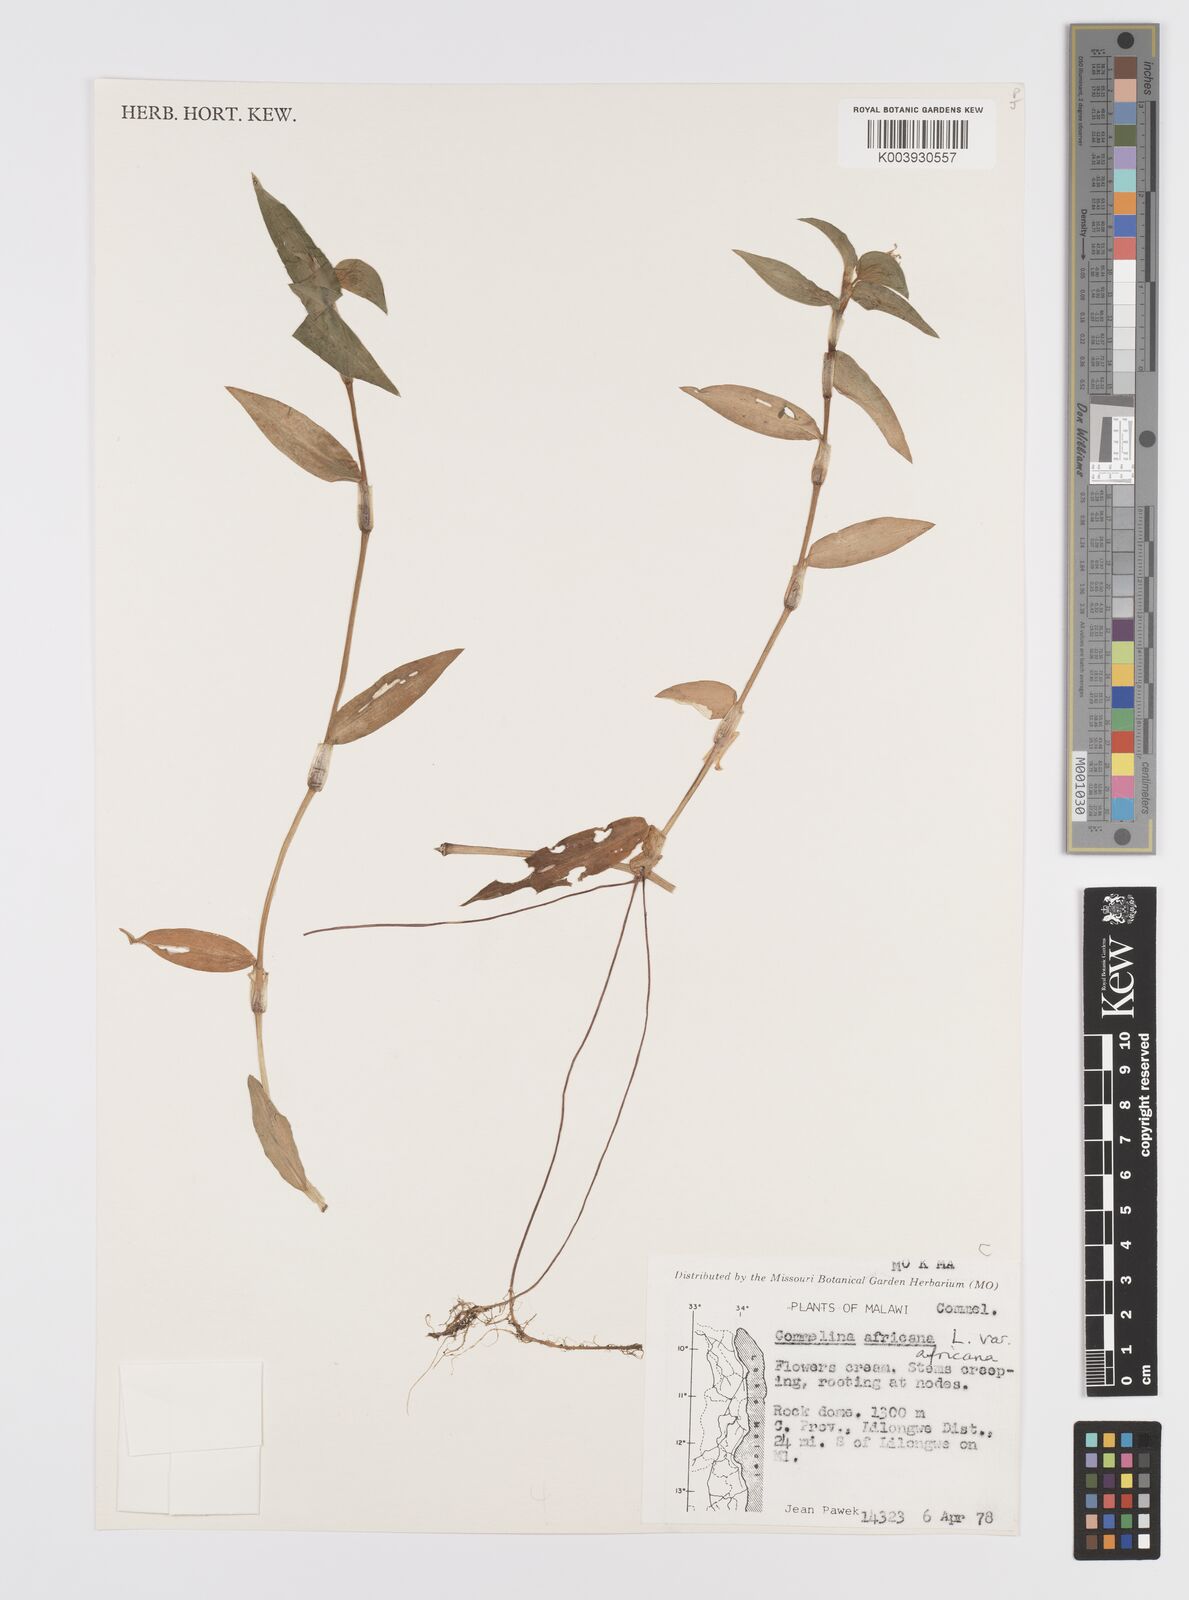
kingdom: Plantae
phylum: Tracheophyta
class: Liliopsida
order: Commelinales
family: Commelinaceae
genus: Commelina
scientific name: Commelina africana
